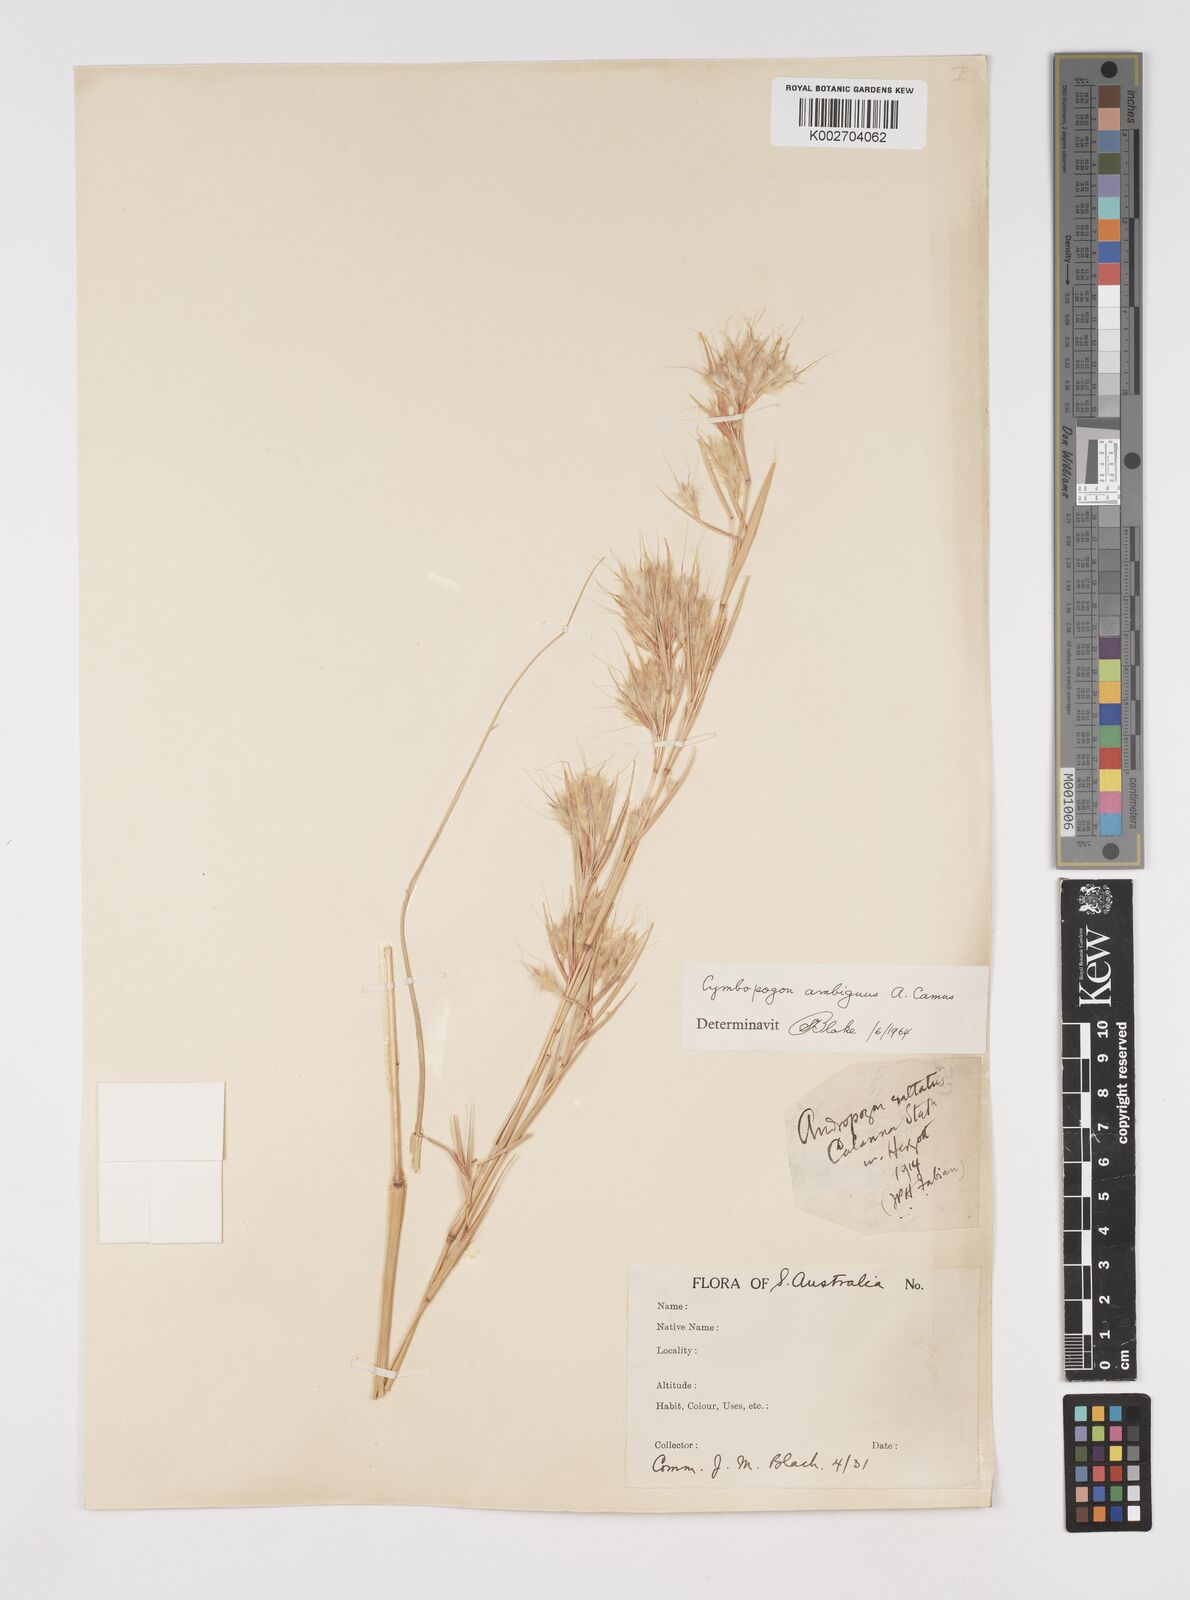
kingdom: Plantae
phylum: Tracheophyta
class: Liliopsida
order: Poales
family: Poaceae
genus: Cymbopogon
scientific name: Cymbopogon ambiguus
